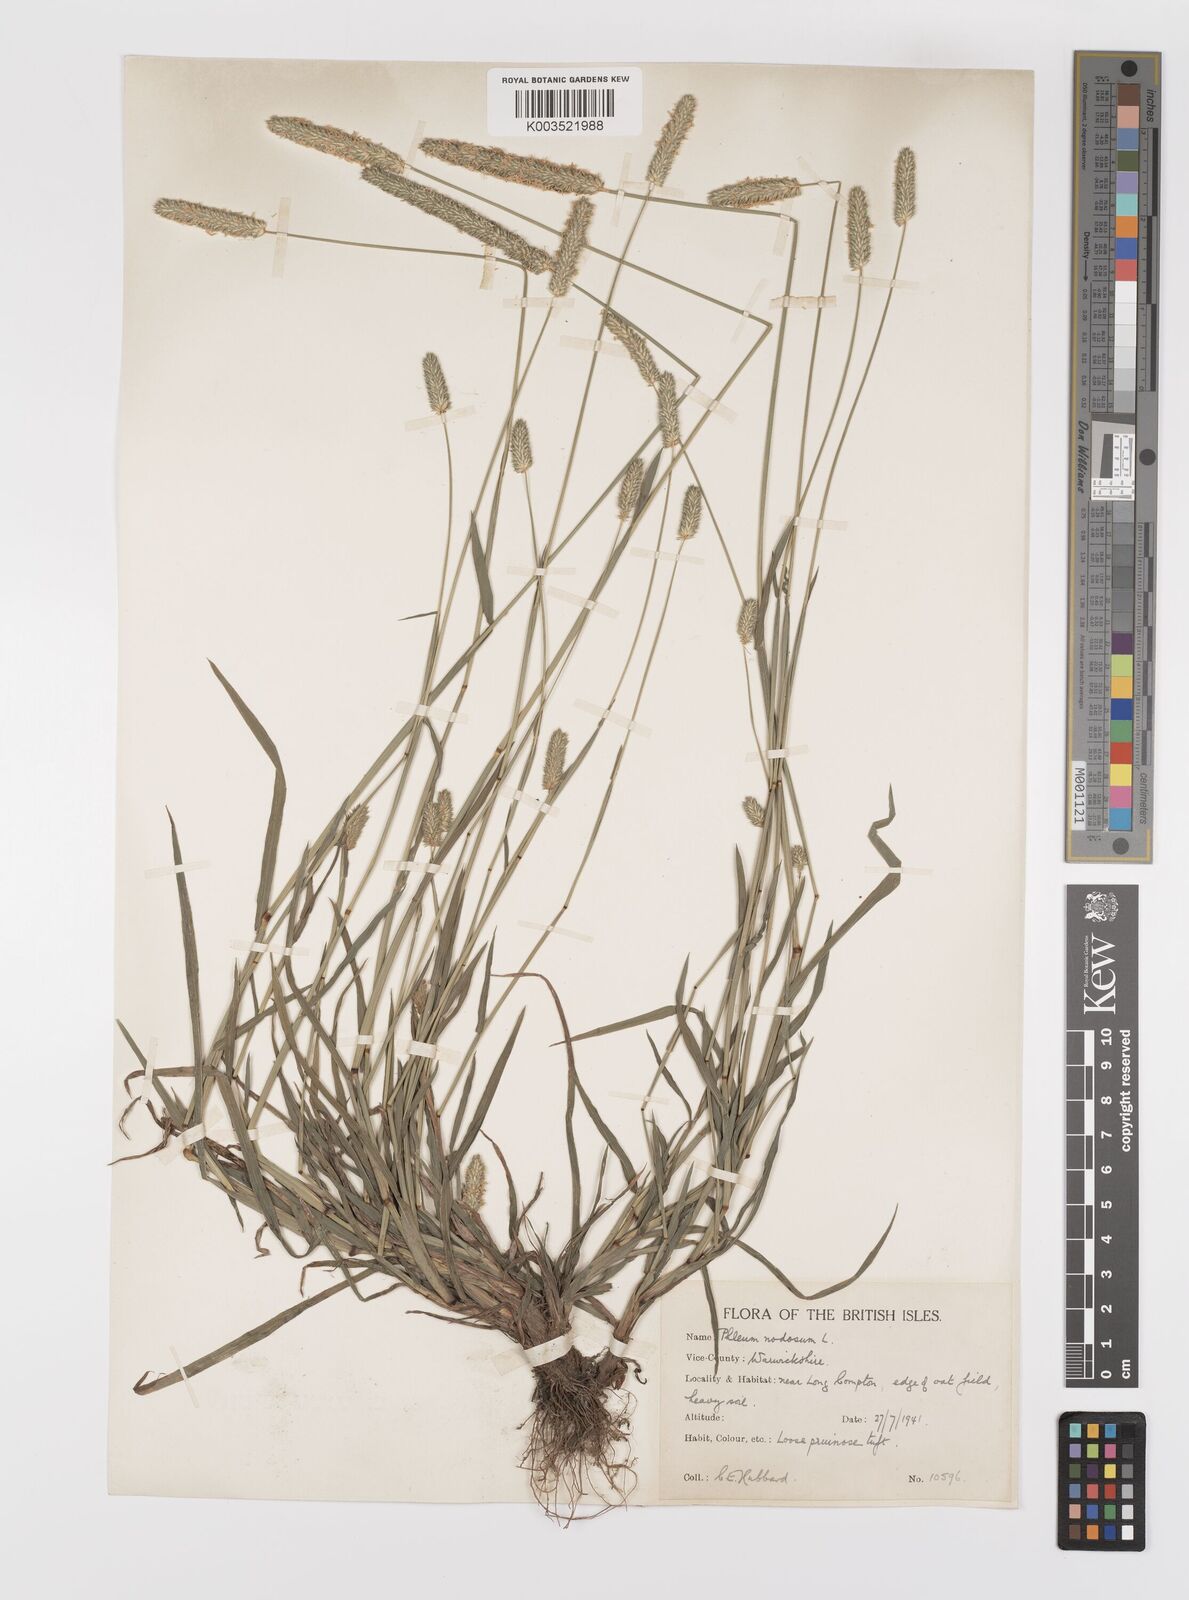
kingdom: Plantae
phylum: Tracheophyta
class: Liliopsida
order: Poales
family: Poaceae
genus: Phleum
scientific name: Phleum bertolonii
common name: Smaller cat's-tail
